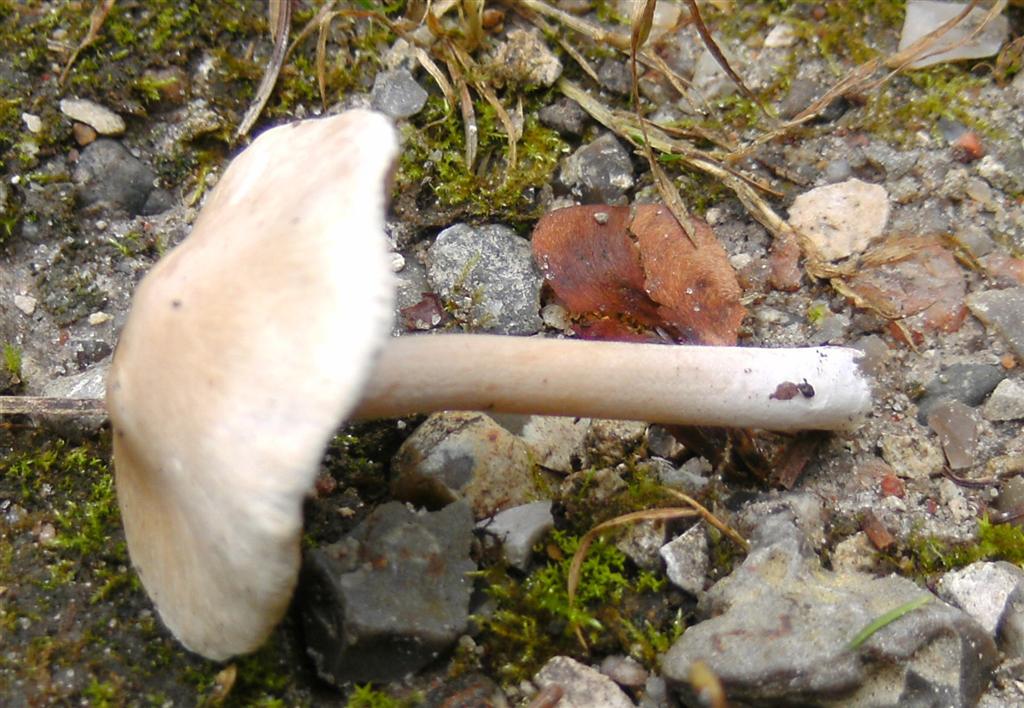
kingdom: Fungi
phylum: Basidiomycota
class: Agaricomycetes
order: Agaricales
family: Inocybaceae
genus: Inocybe
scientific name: Inocybe sindonia
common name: bleg trævlhat
